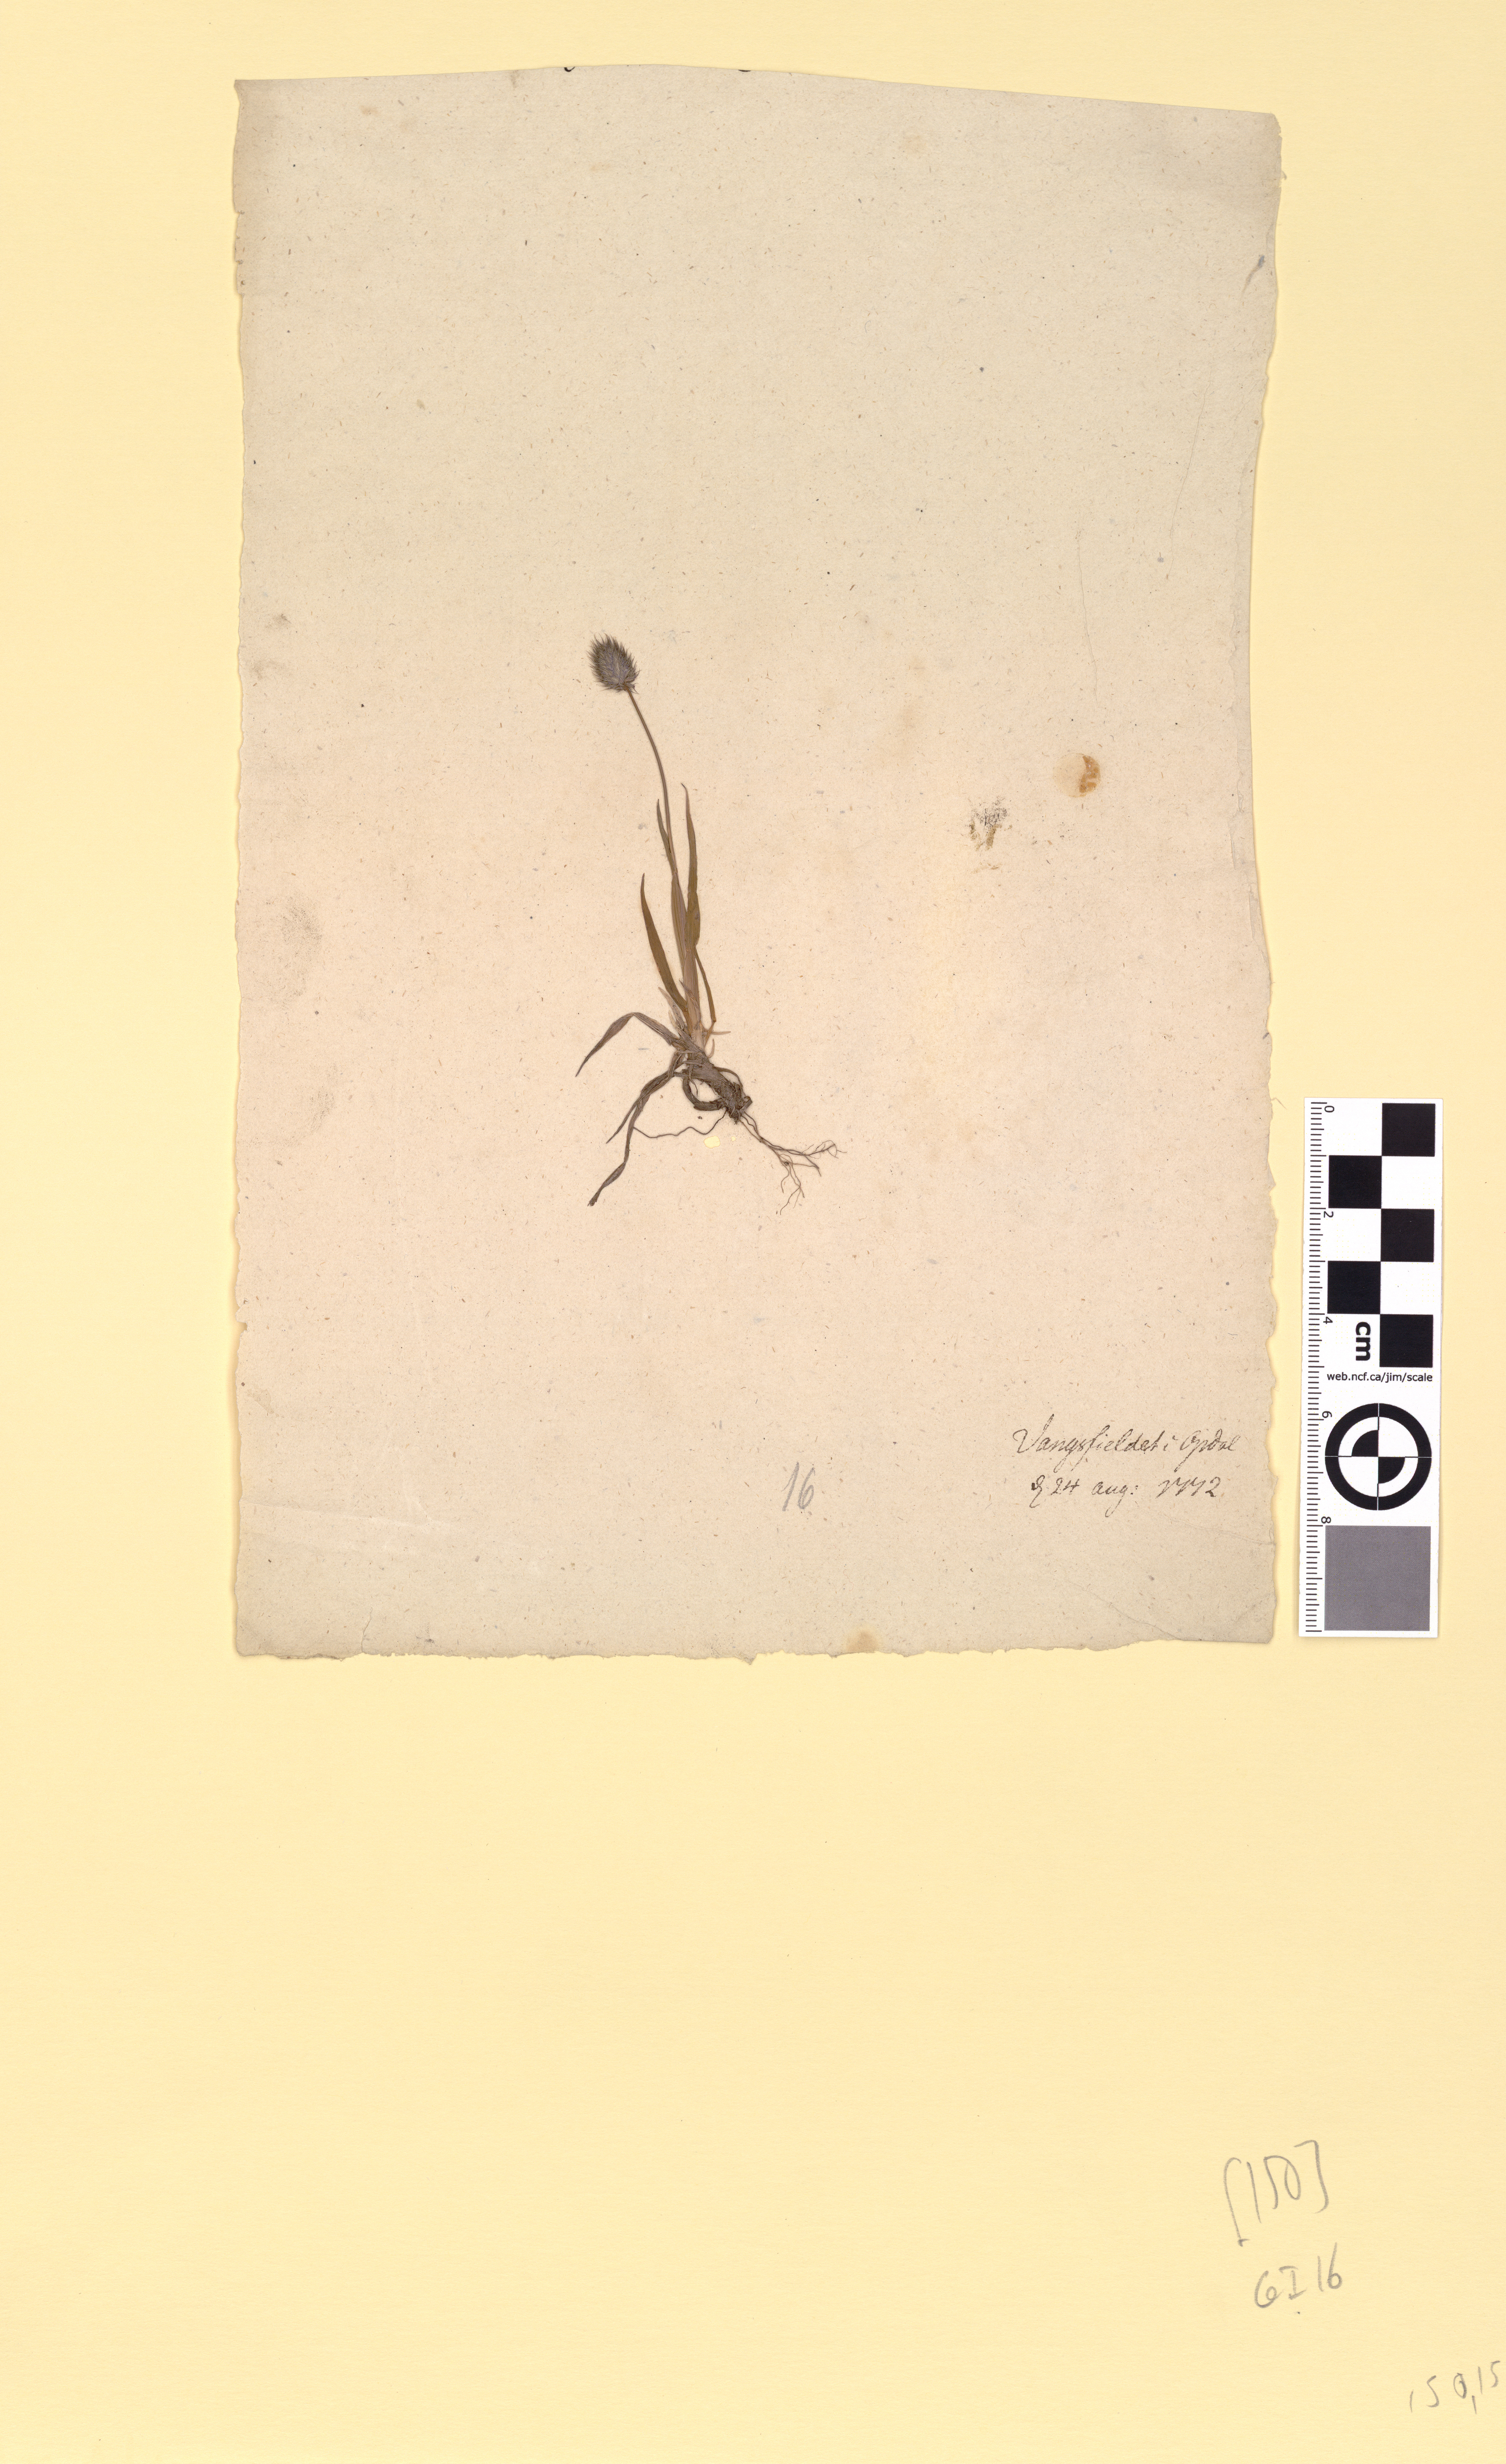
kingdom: Plantae
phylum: Tracheophyta
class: Liliopsida
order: Poales
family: Poaceae
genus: Phleum
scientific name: Phleum alpinum
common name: Alpine cat's-tail
